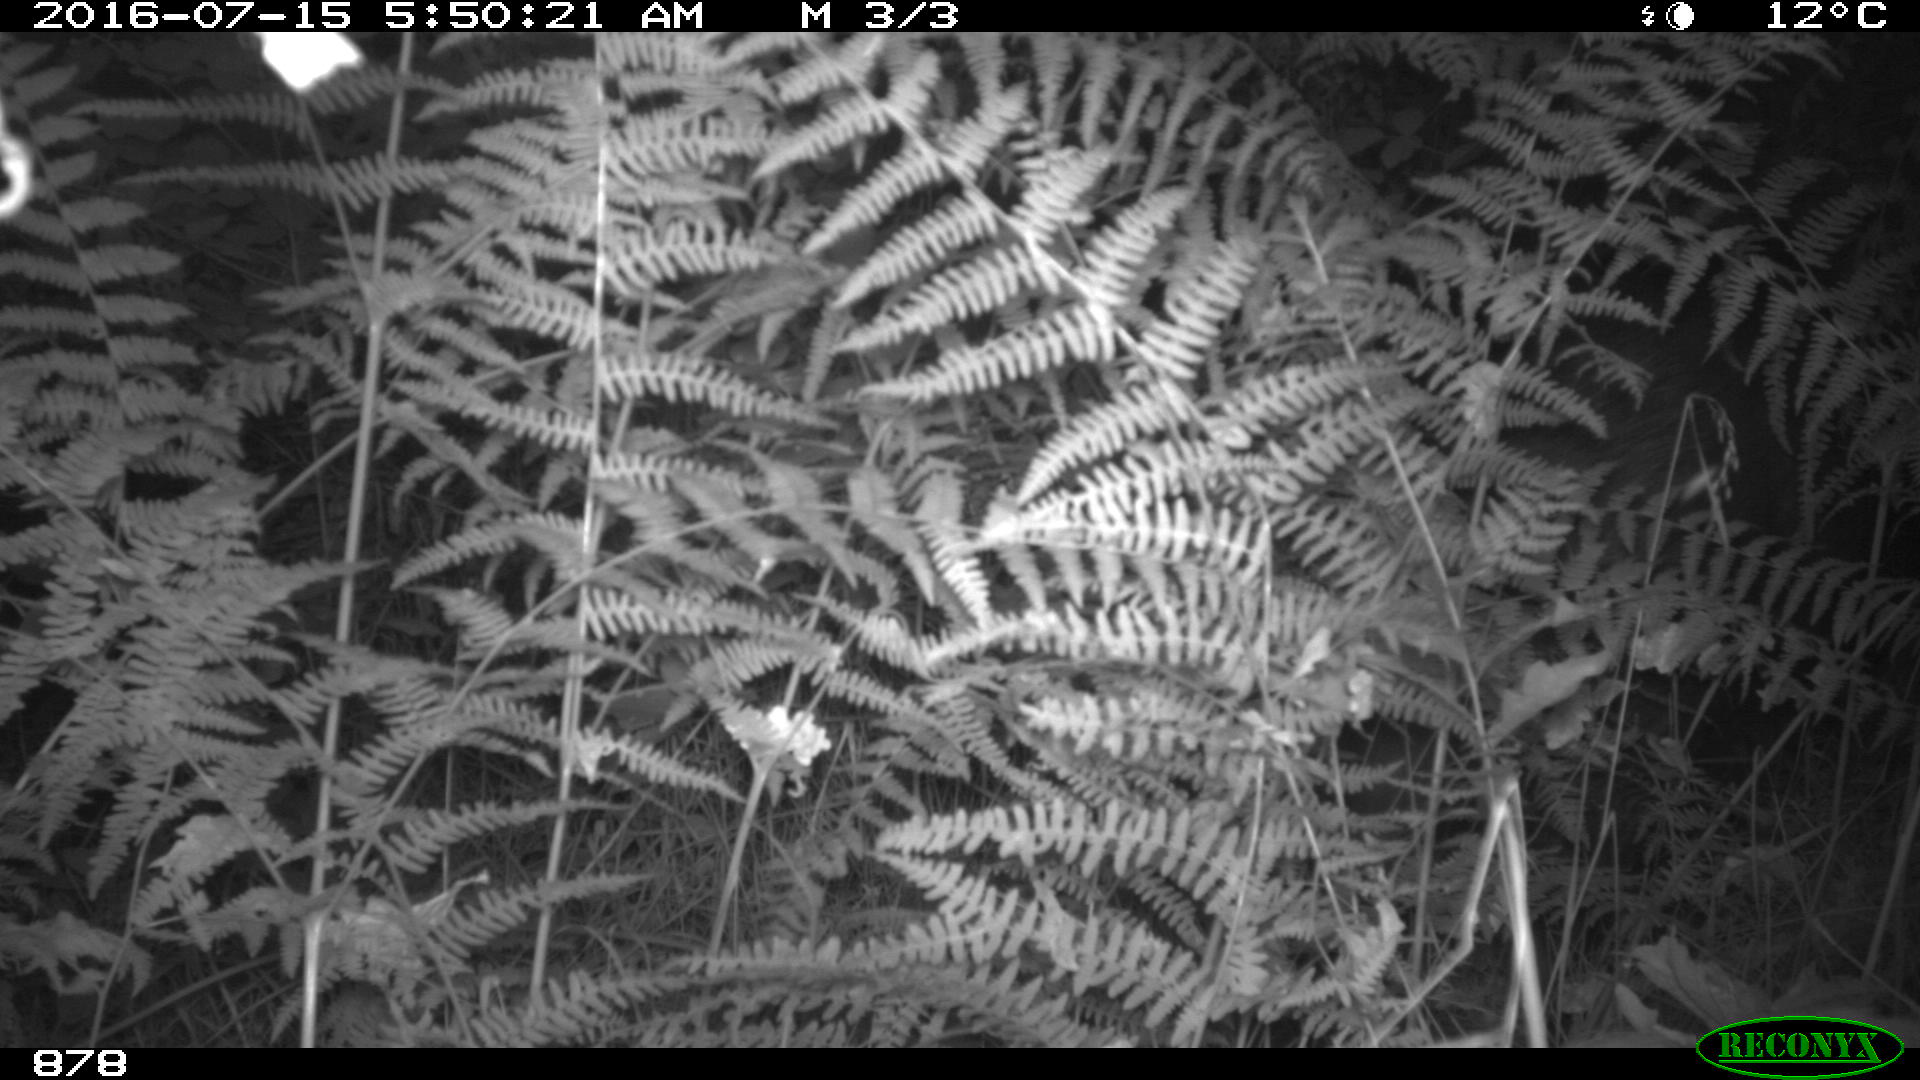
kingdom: Animalia
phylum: Chordata
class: Mammalia
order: Artiodactyla
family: Suidae
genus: Sus
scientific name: Sus scrofa
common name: Wild boar
